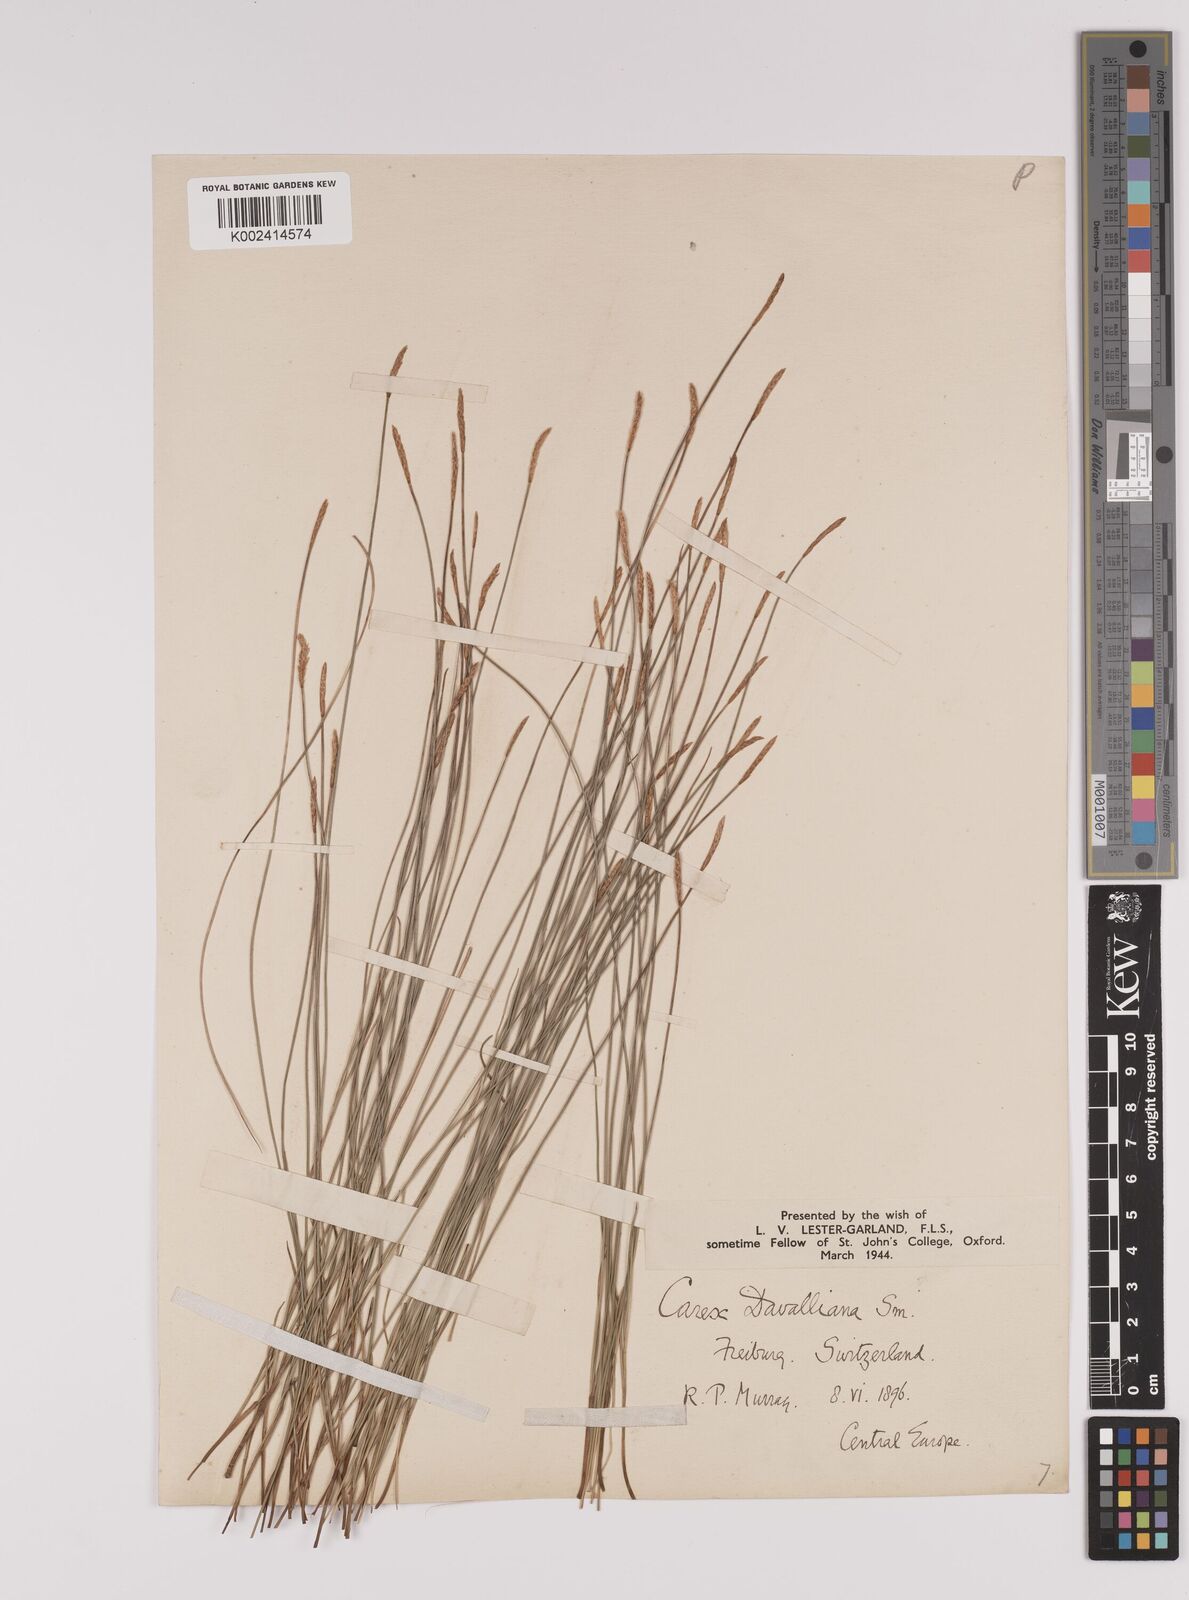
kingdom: Plantae
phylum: Tracheophyta
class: Liliopsida
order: Poales
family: Cyperaceae
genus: Carex
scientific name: Carex davalliana
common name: Davall's sedge
